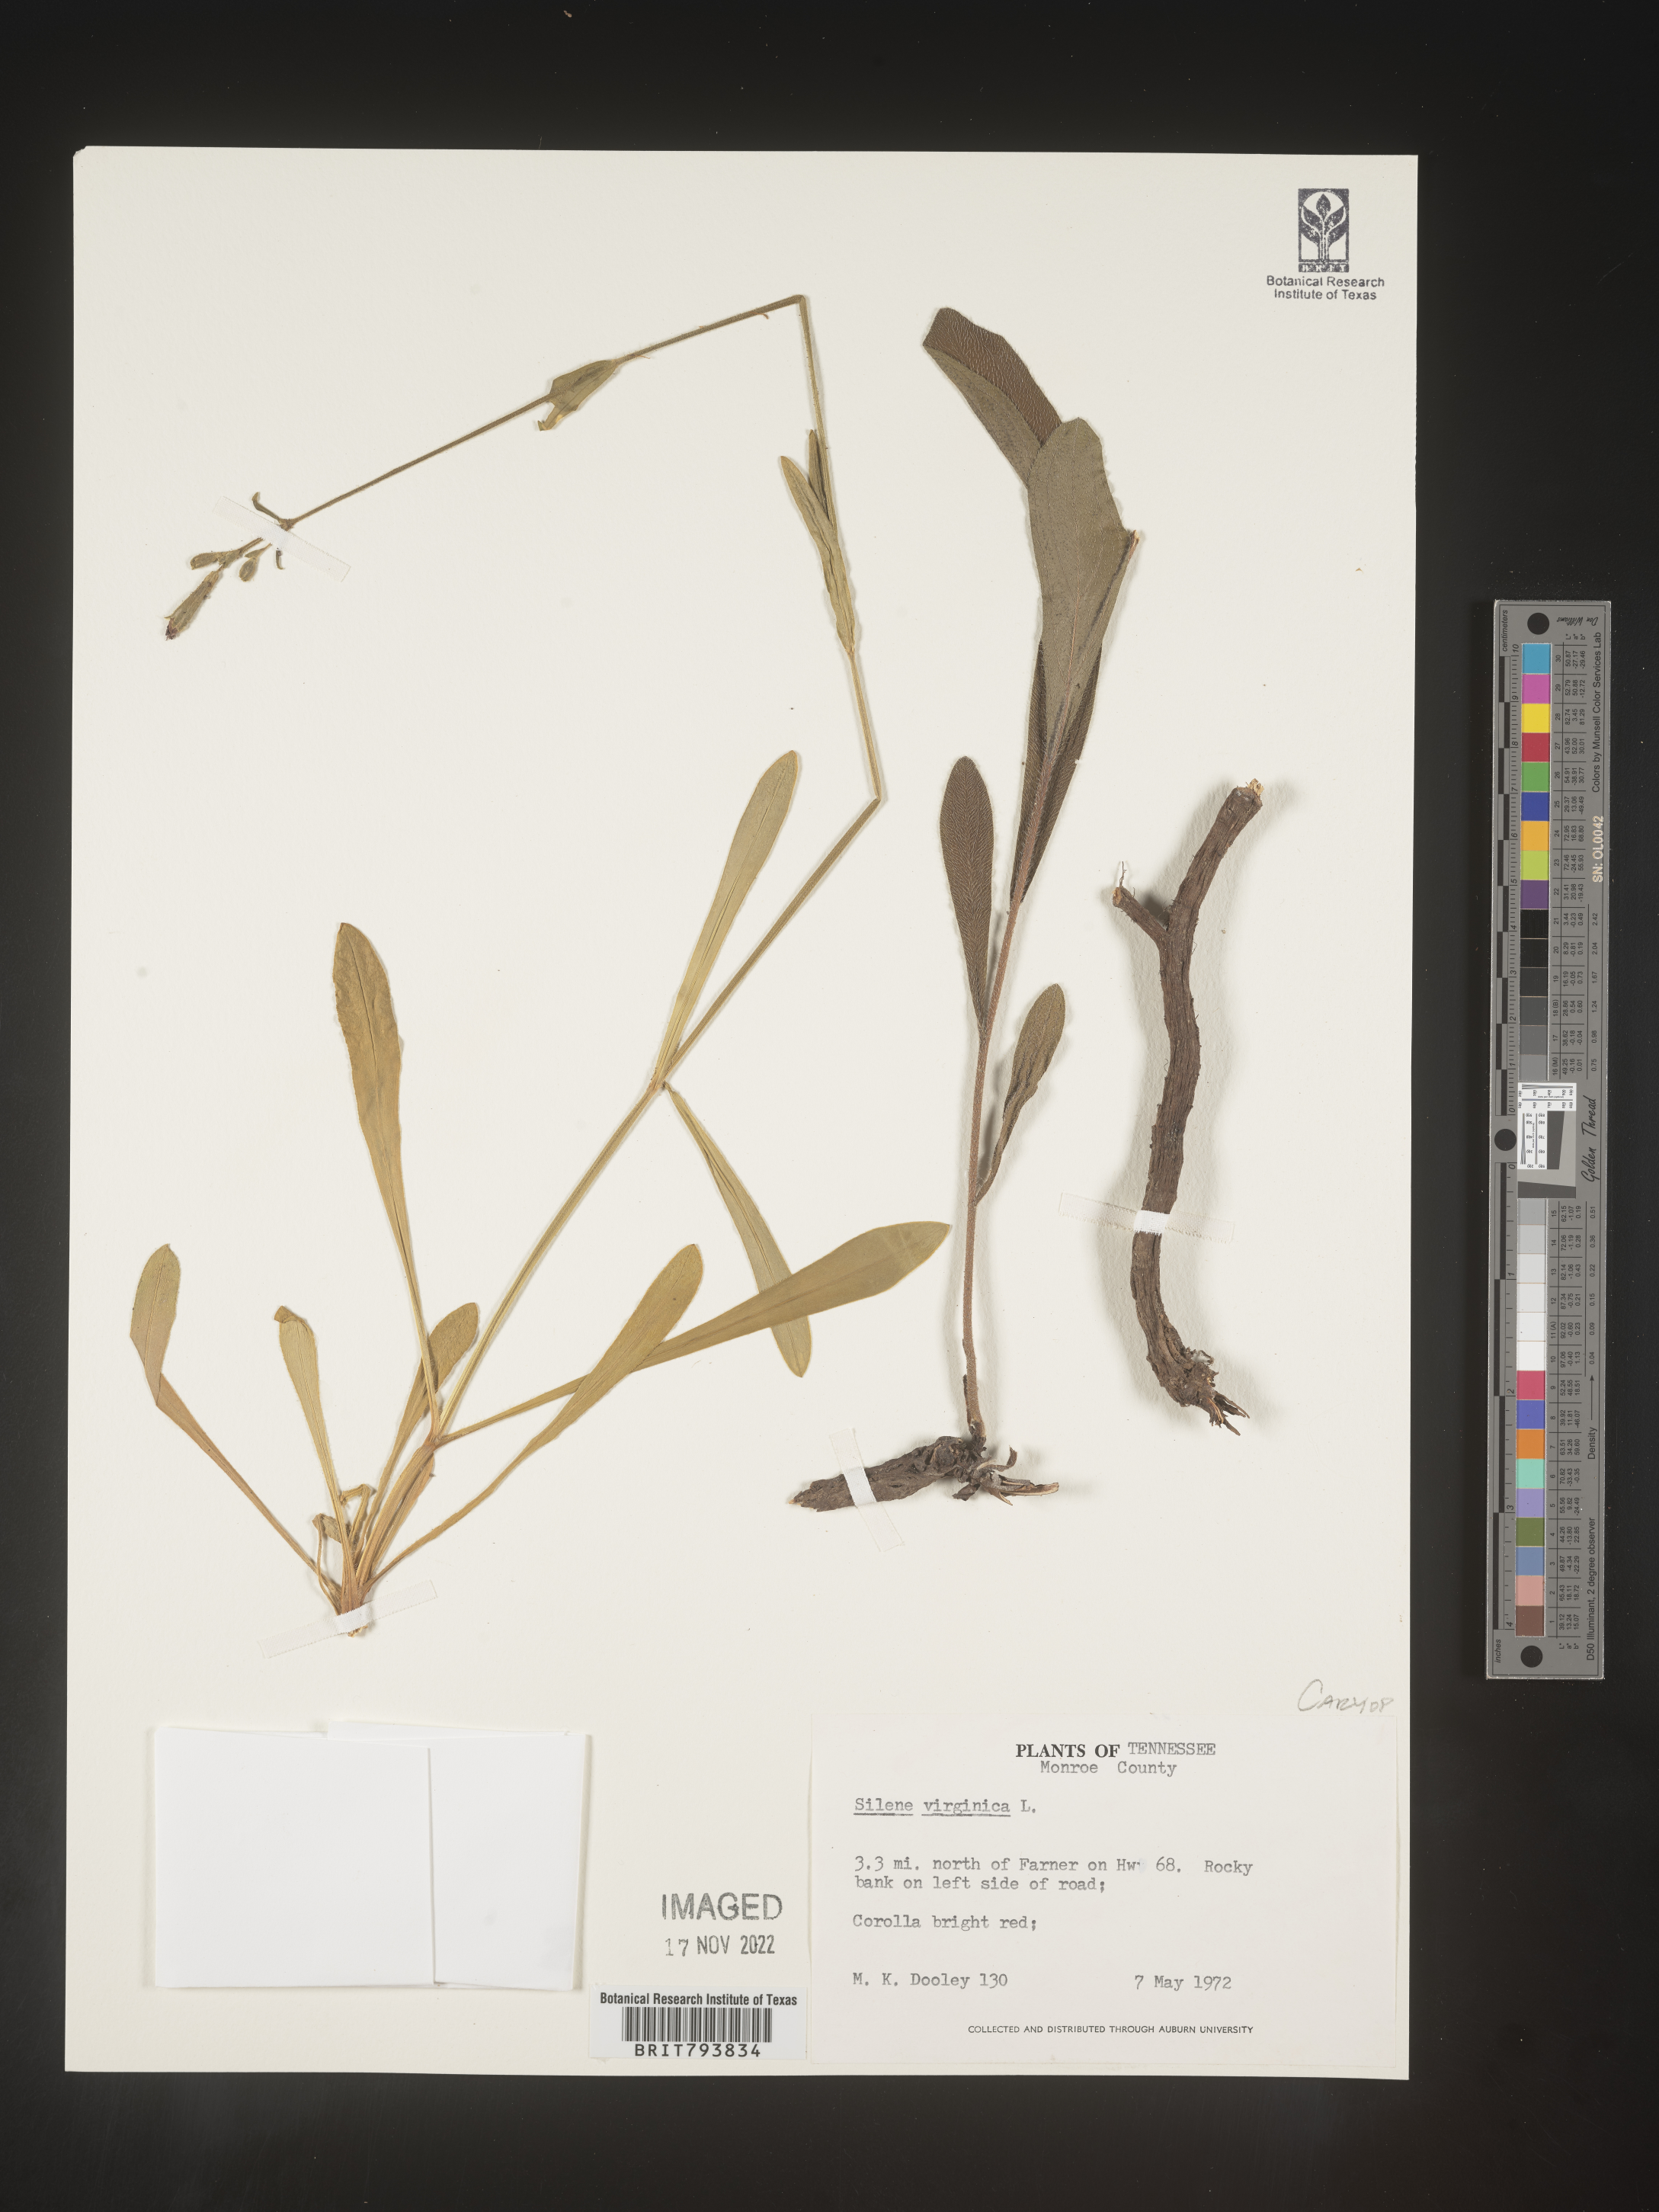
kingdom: Plantae
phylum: Tracheophyta
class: Magnoliopsida
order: Caryophyllales
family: Caryophyllaceae
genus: Silene
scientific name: Silene virginica
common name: Fire-pink
